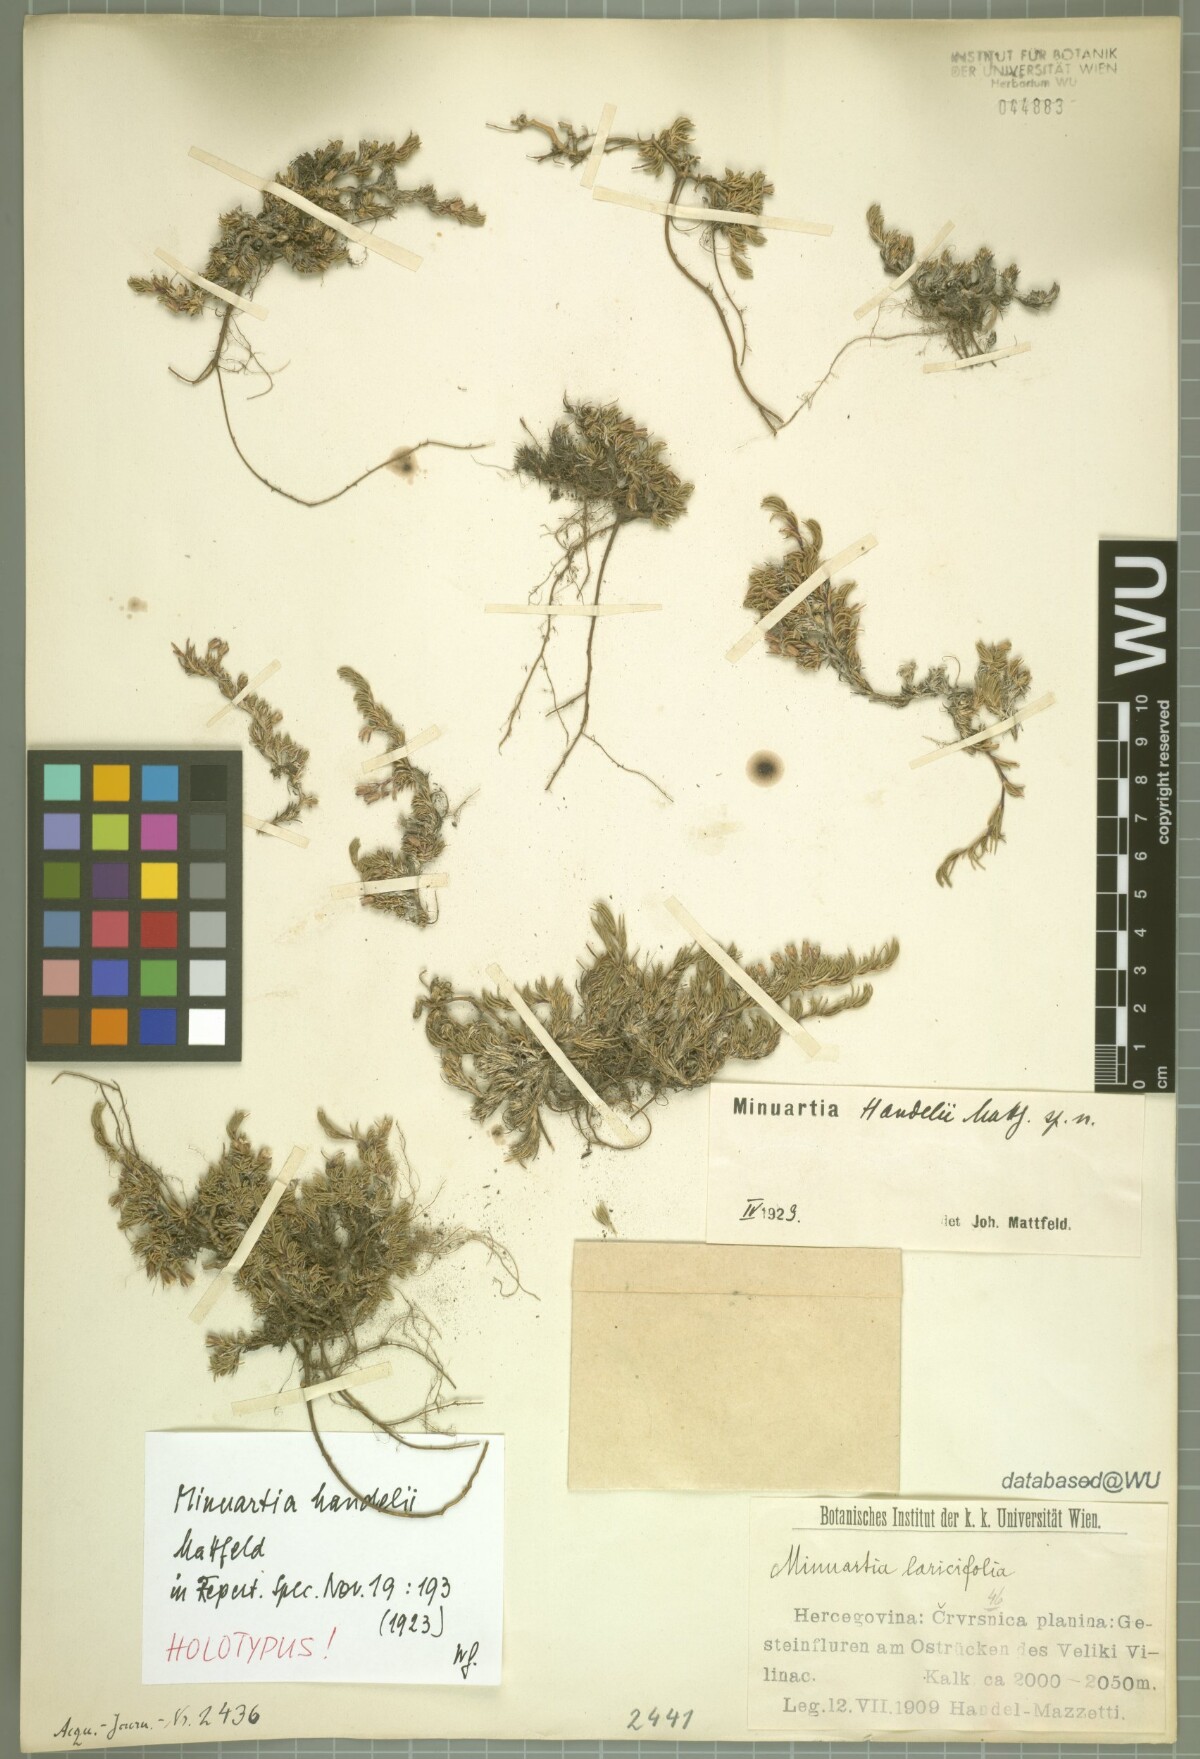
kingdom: Plantae
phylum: Tracheophyta
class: Magnoliopsida
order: Caryophyllales
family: Caryophyllaceae
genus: Cherleria
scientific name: Cherleria handelii
